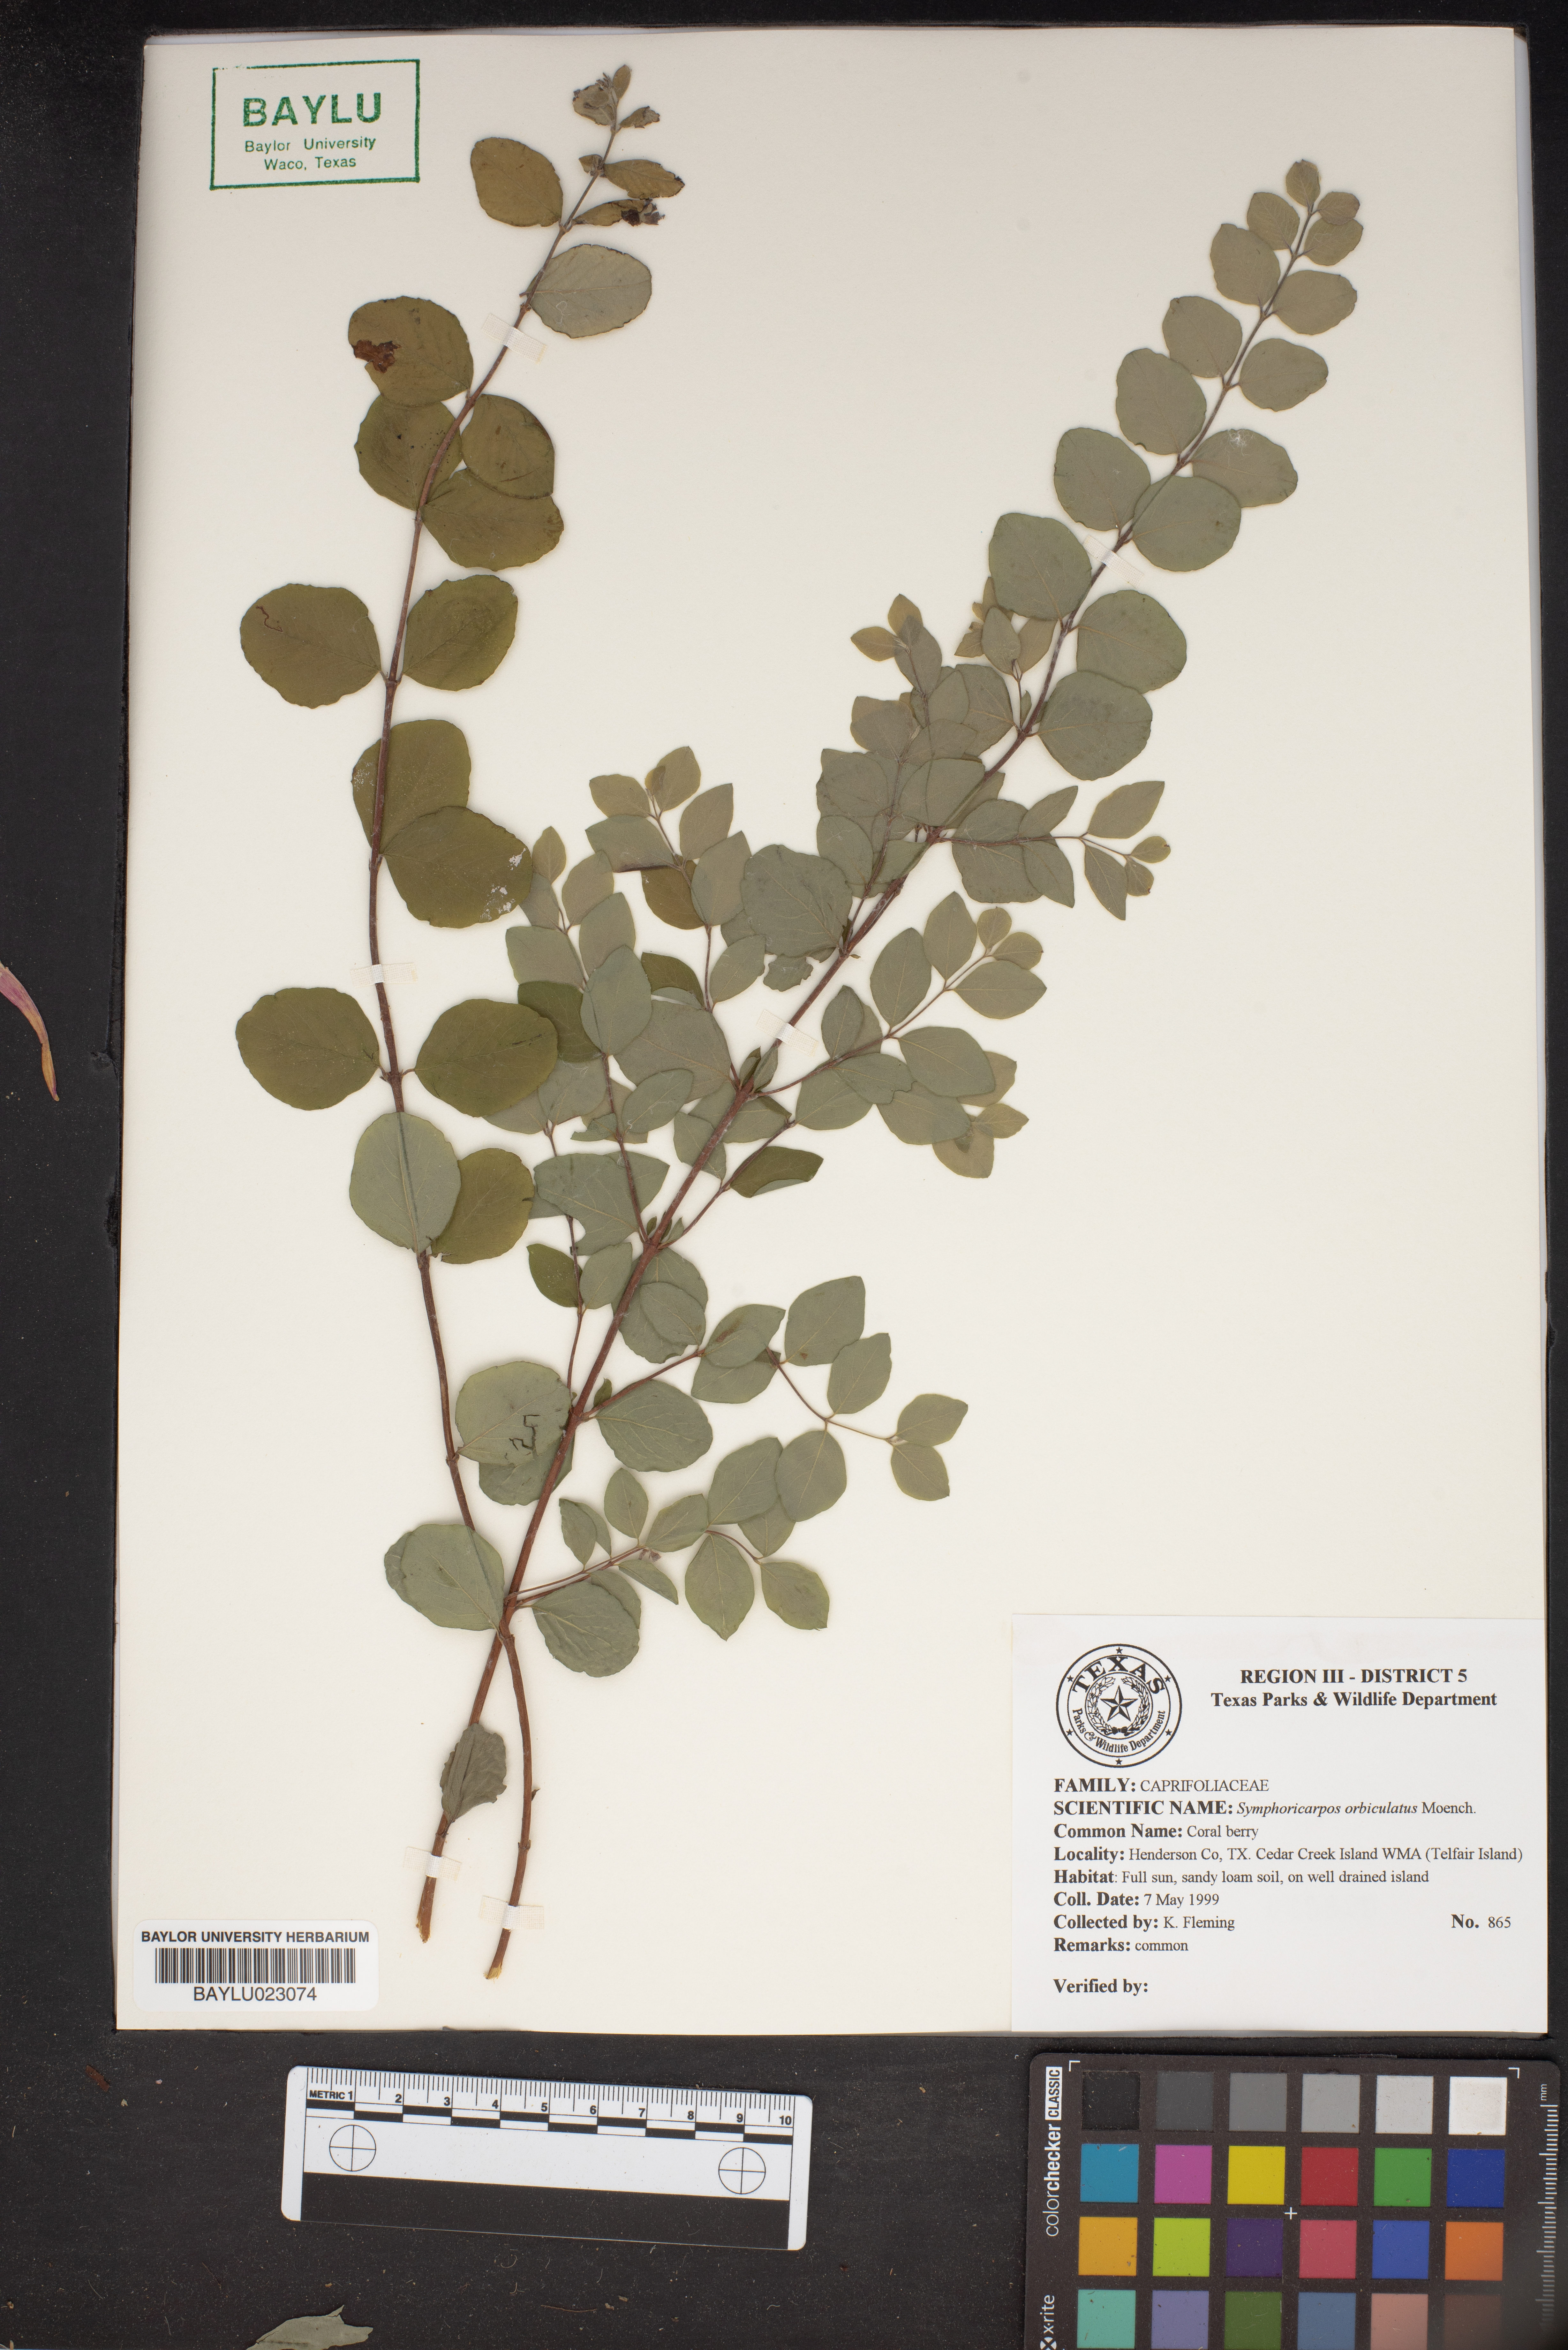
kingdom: Plantae
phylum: Tracheophyta
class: Magnoliopsida
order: Dipsacales
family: Caprifoliaceae
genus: Symphoricarpos
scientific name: Symphoricarpos orbiculatus
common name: Coralberry
